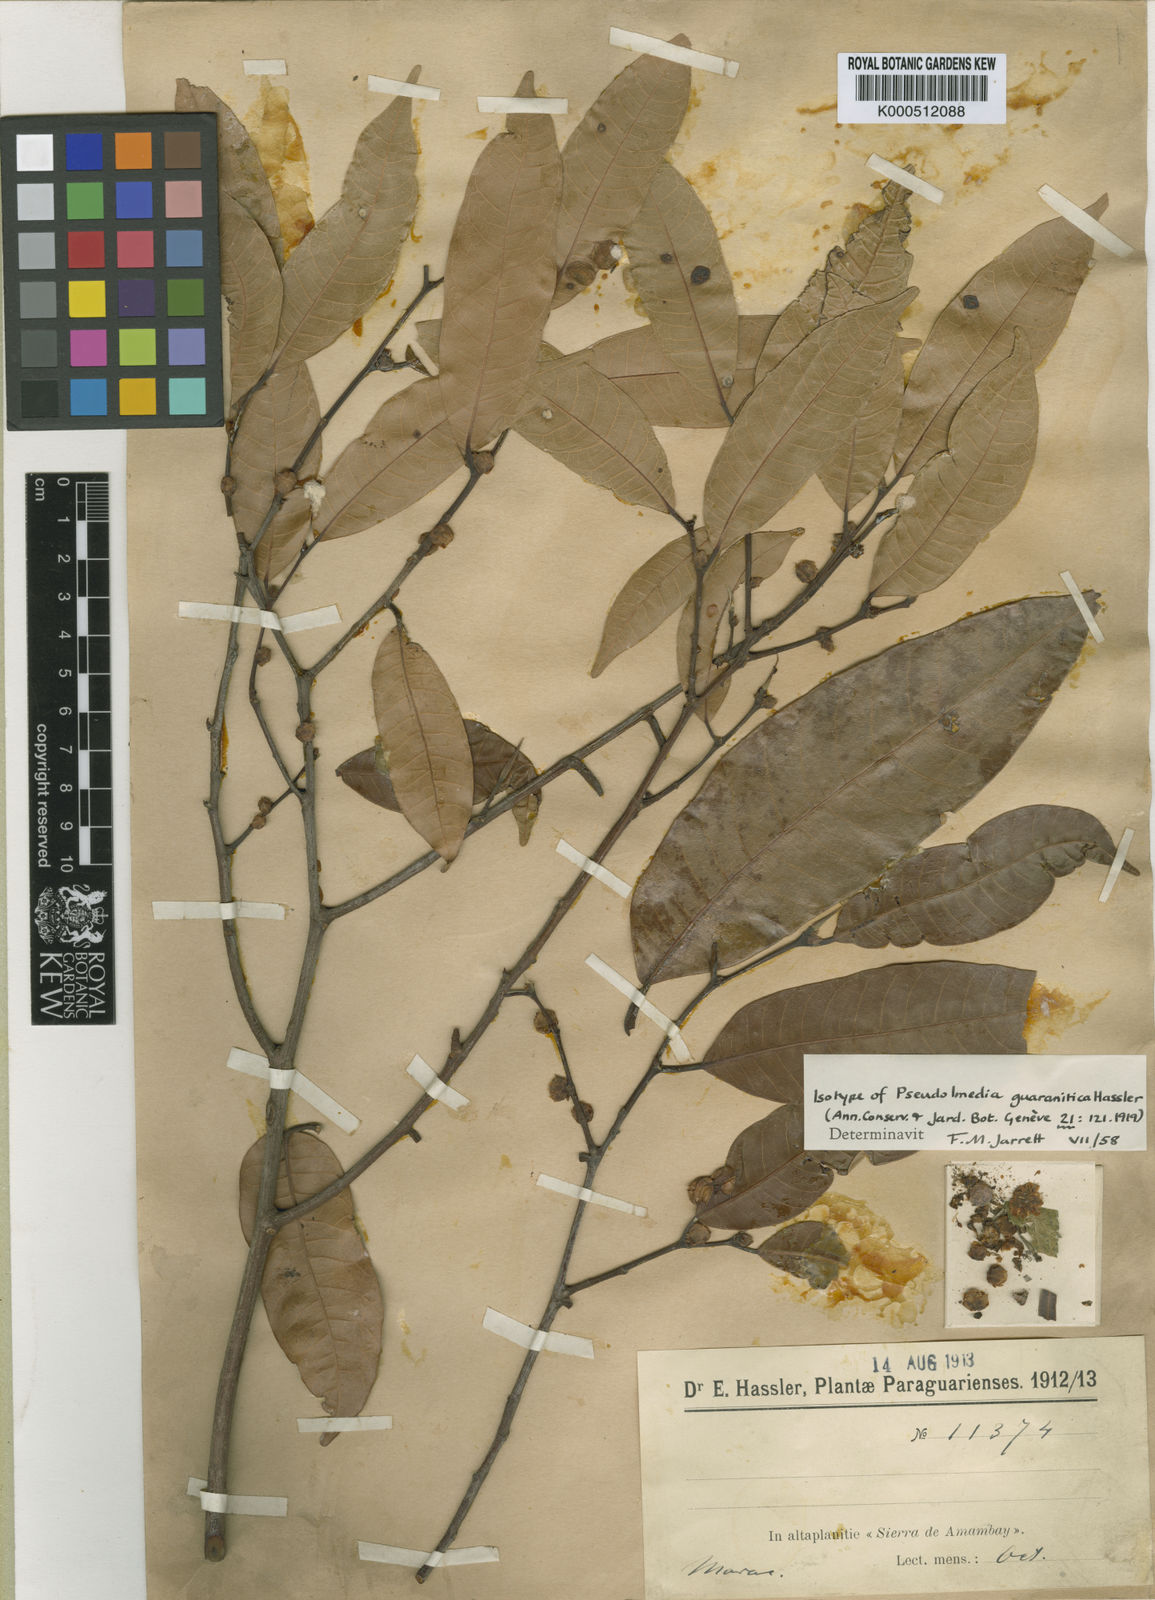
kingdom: Plantae
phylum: Tracheophyta
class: Magnoliopsida
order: Rosales
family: Moraceae
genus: Pseudolmedia
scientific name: Pseudolmedia laevigata
